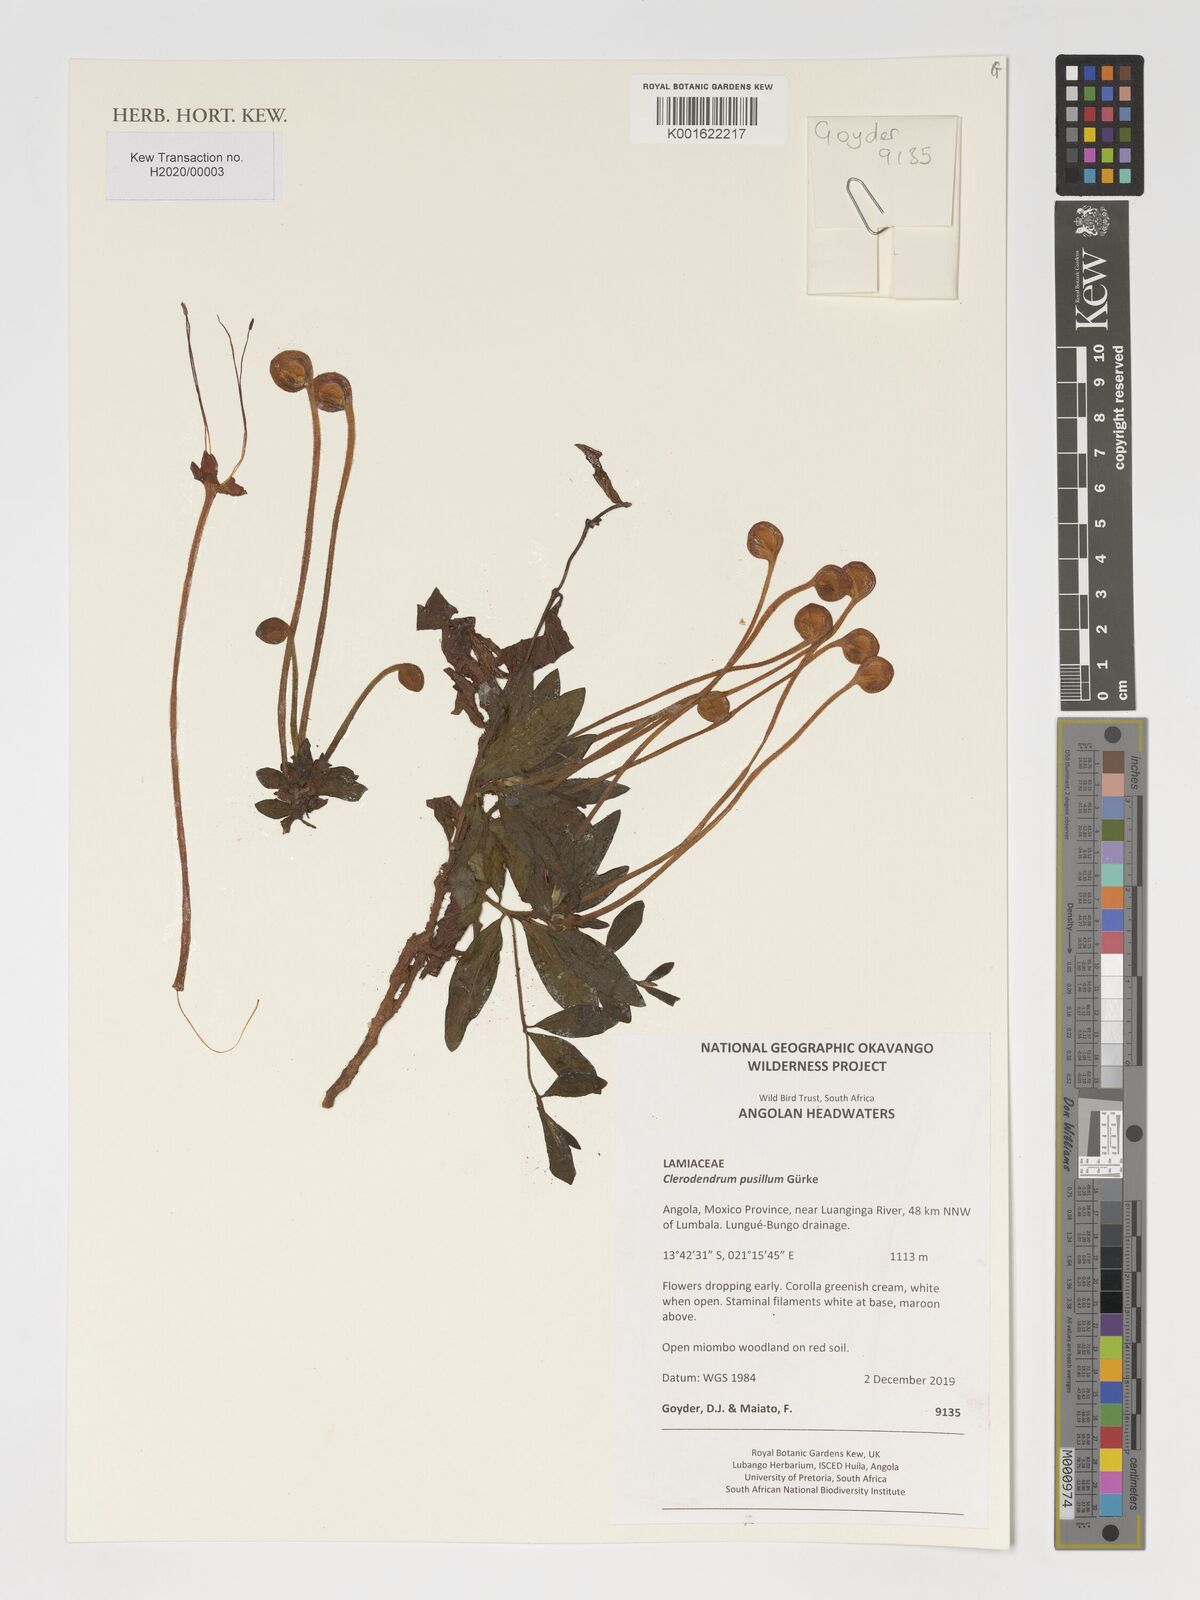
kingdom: Plantae
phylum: Tracheophyta
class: Magnoliopsida
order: Lamiales
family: Lamiaceae
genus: Clerodendrum
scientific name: Clerodendrum pusillum
